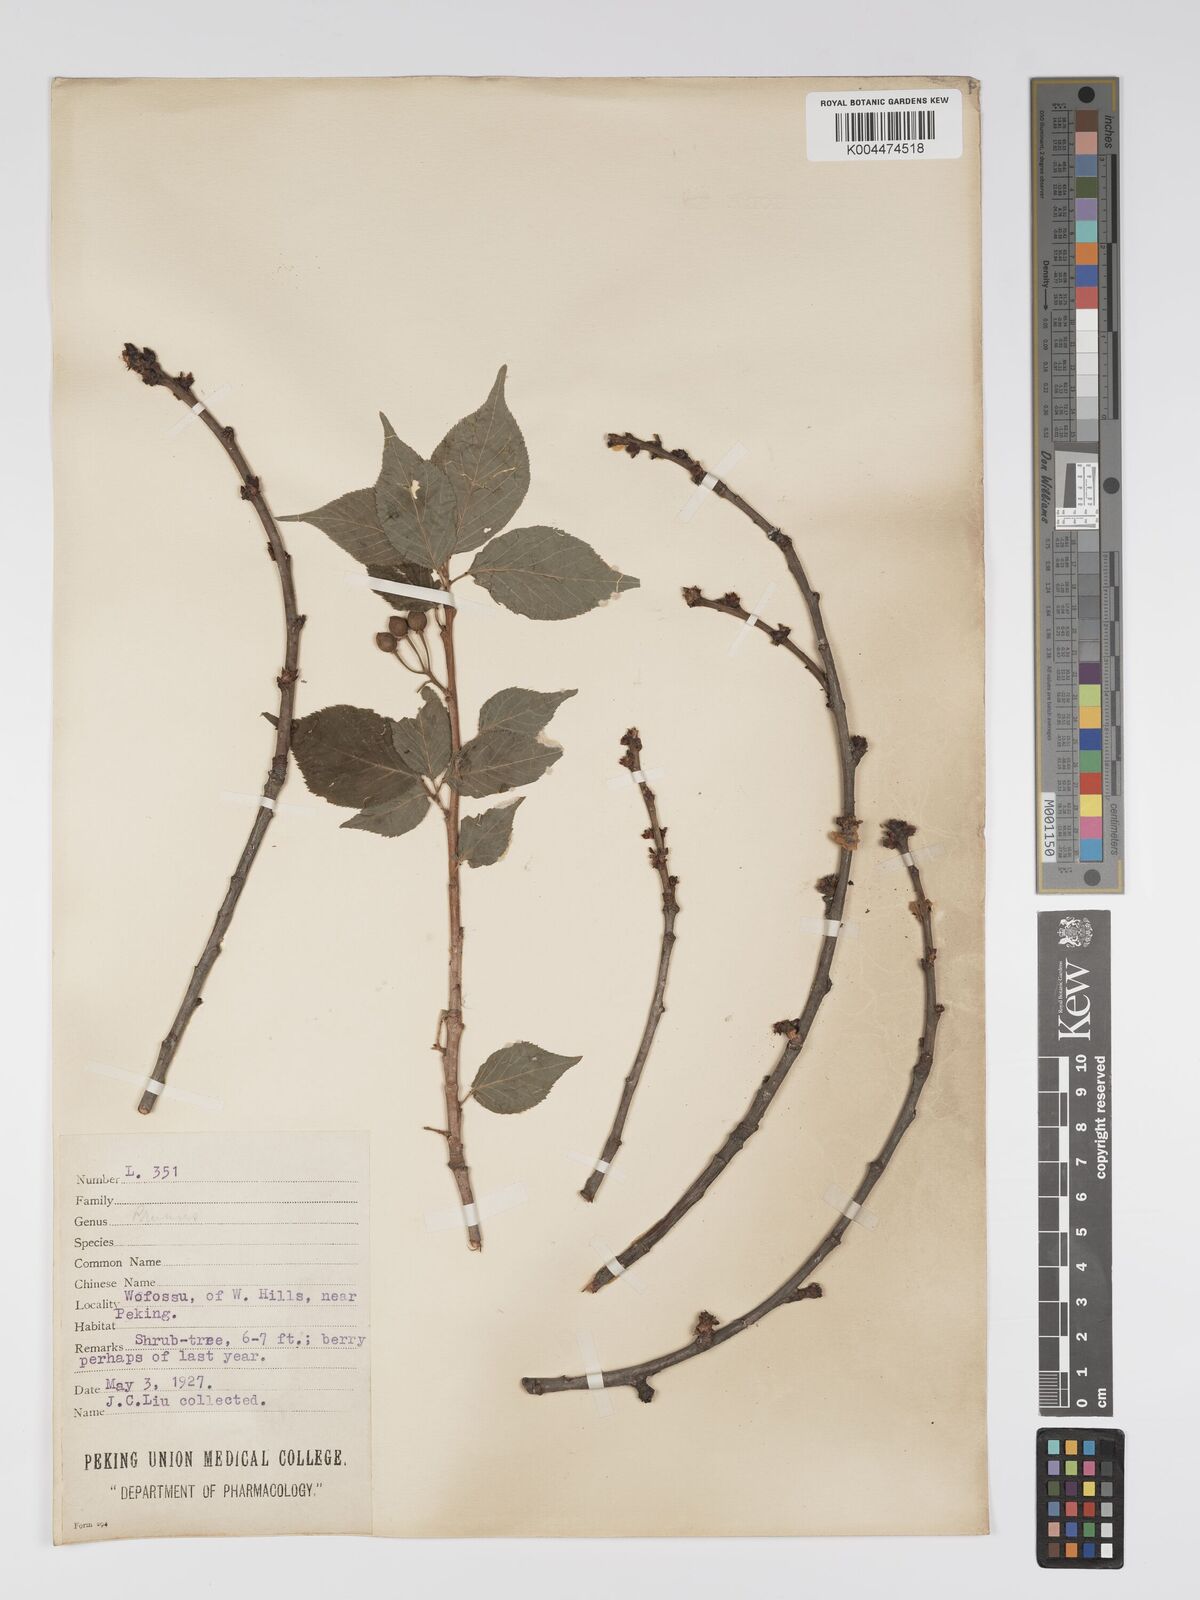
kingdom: Plantae
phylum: Tracheophyta
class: Magnoliopsida
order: Rosales
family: Rosaceae
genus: Prunus
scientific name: Prunus
